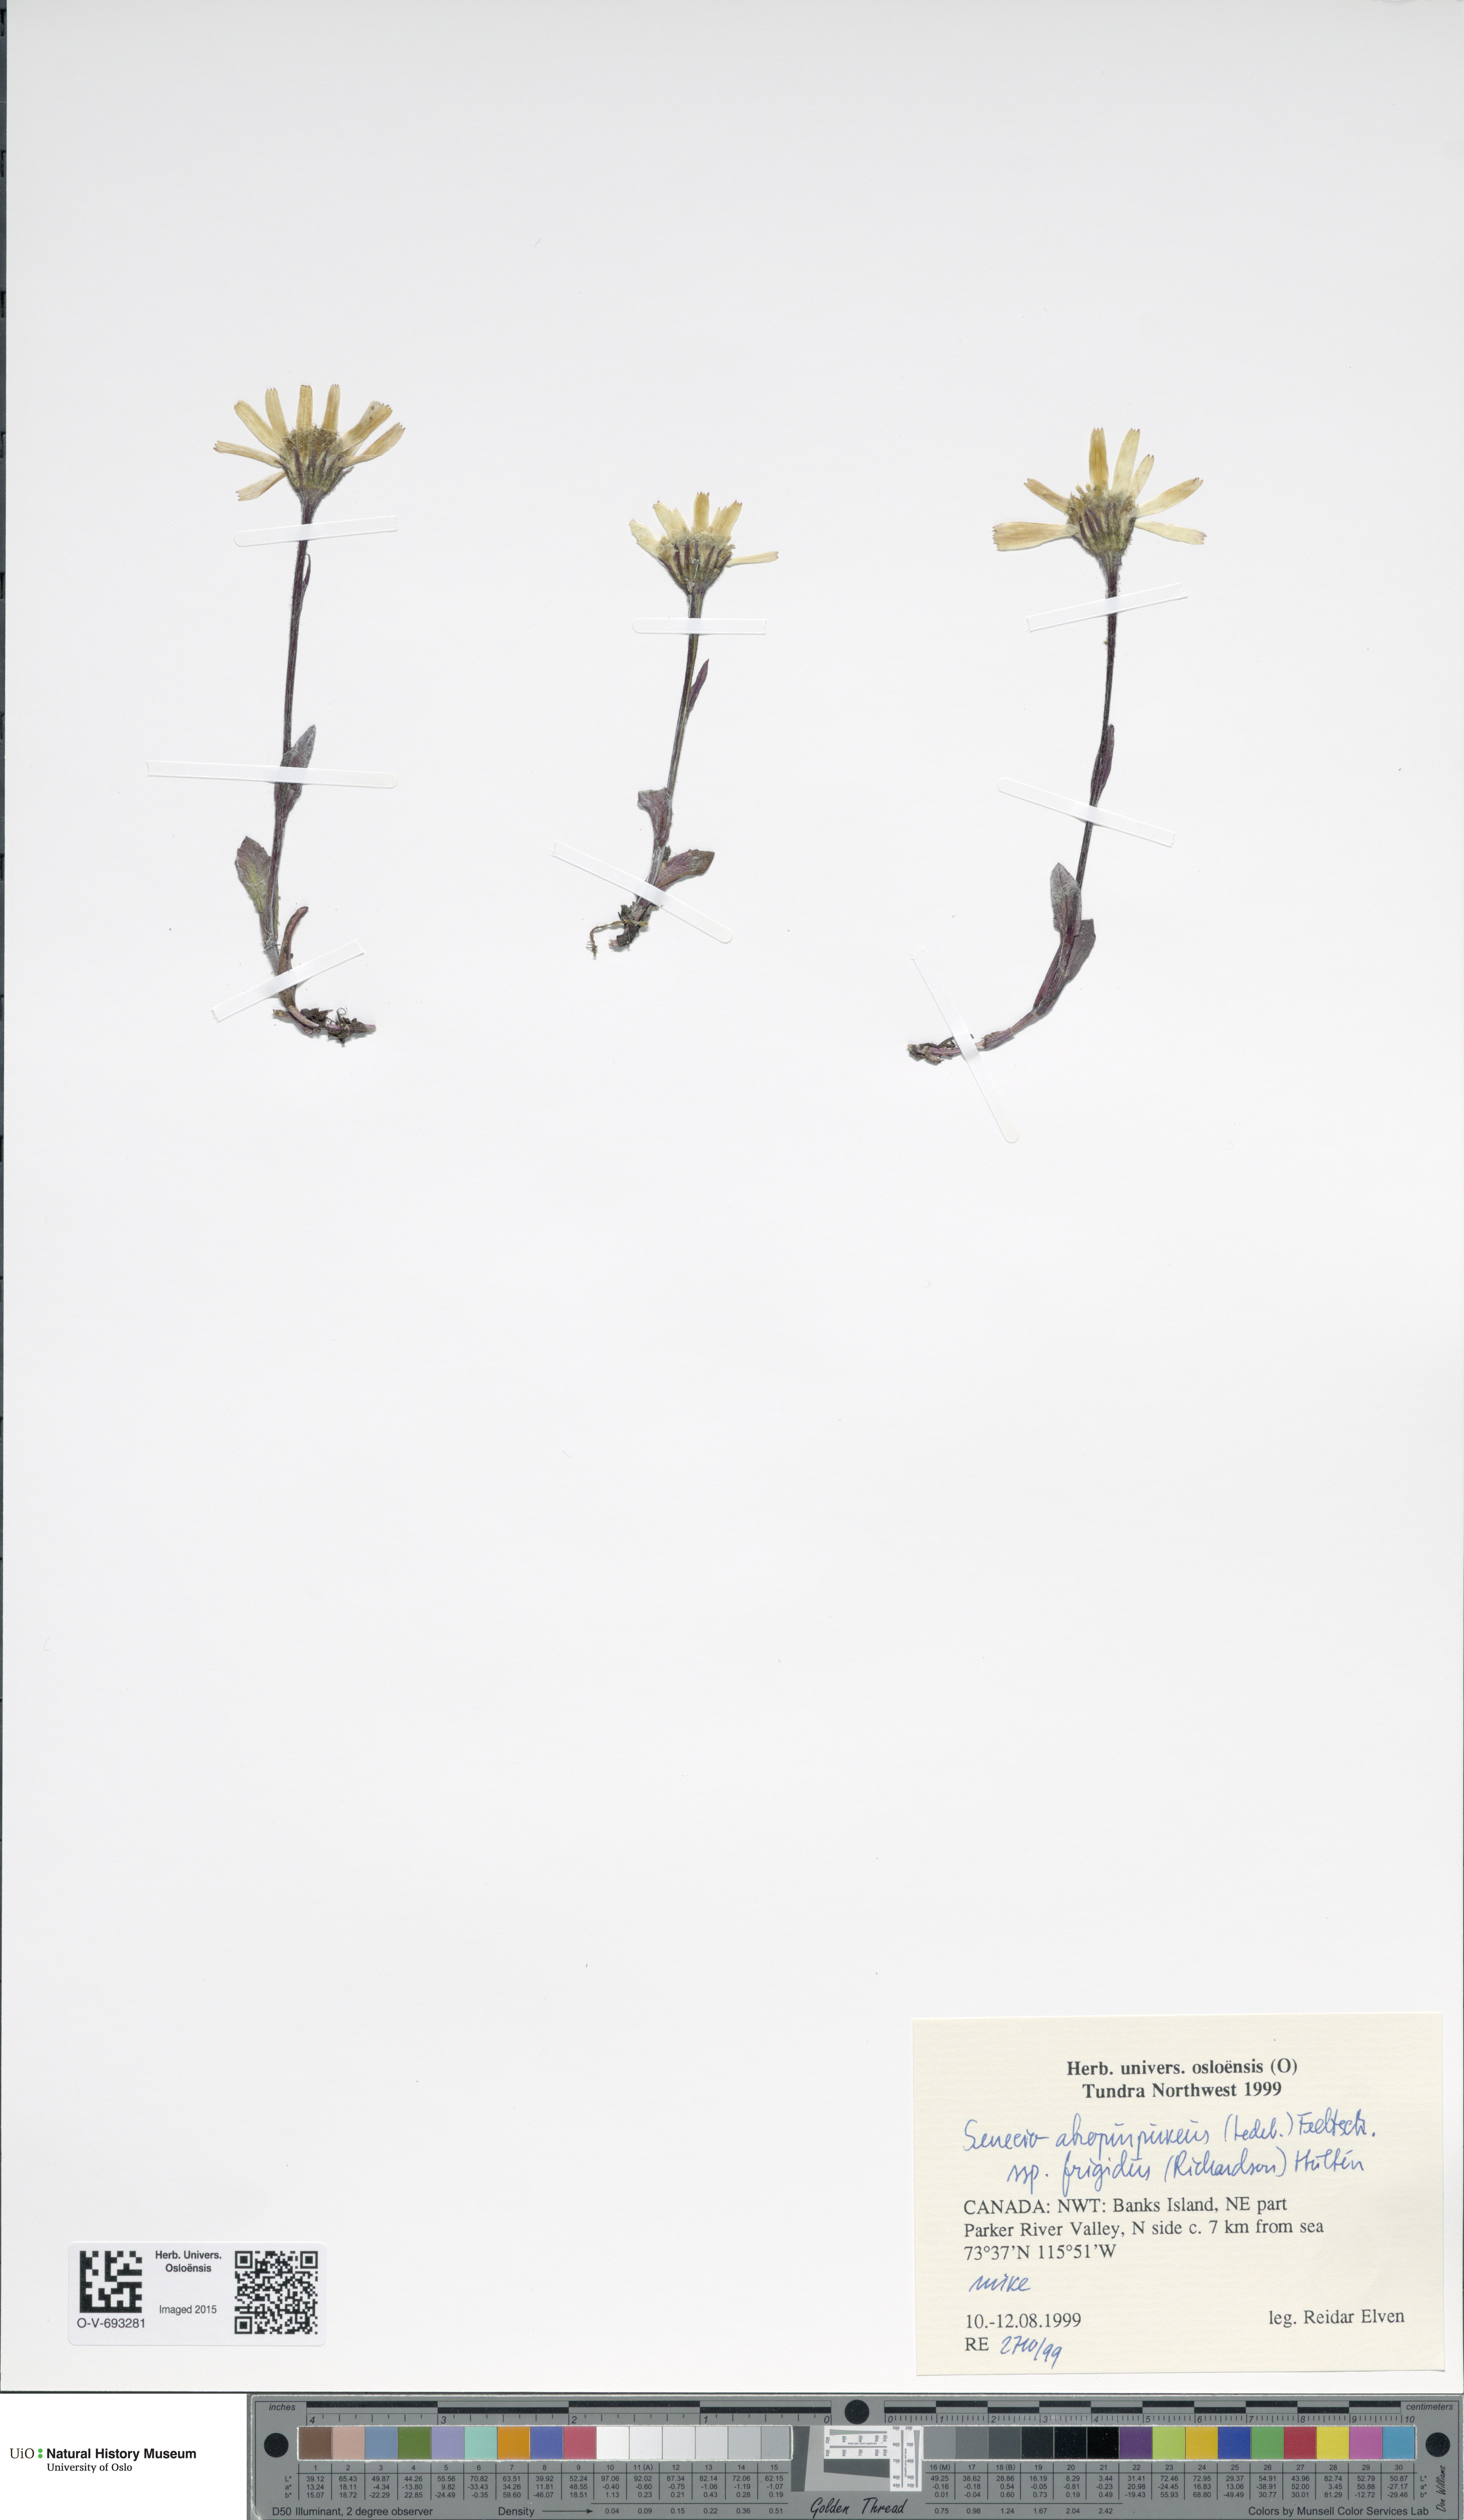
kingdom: Plantae
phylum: Tracheophyta
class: Magnoliopsida
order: Asterales
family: Asteraceae
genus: Tephroseris
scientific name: Tephroseris integrifolia
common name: Field fleawort
